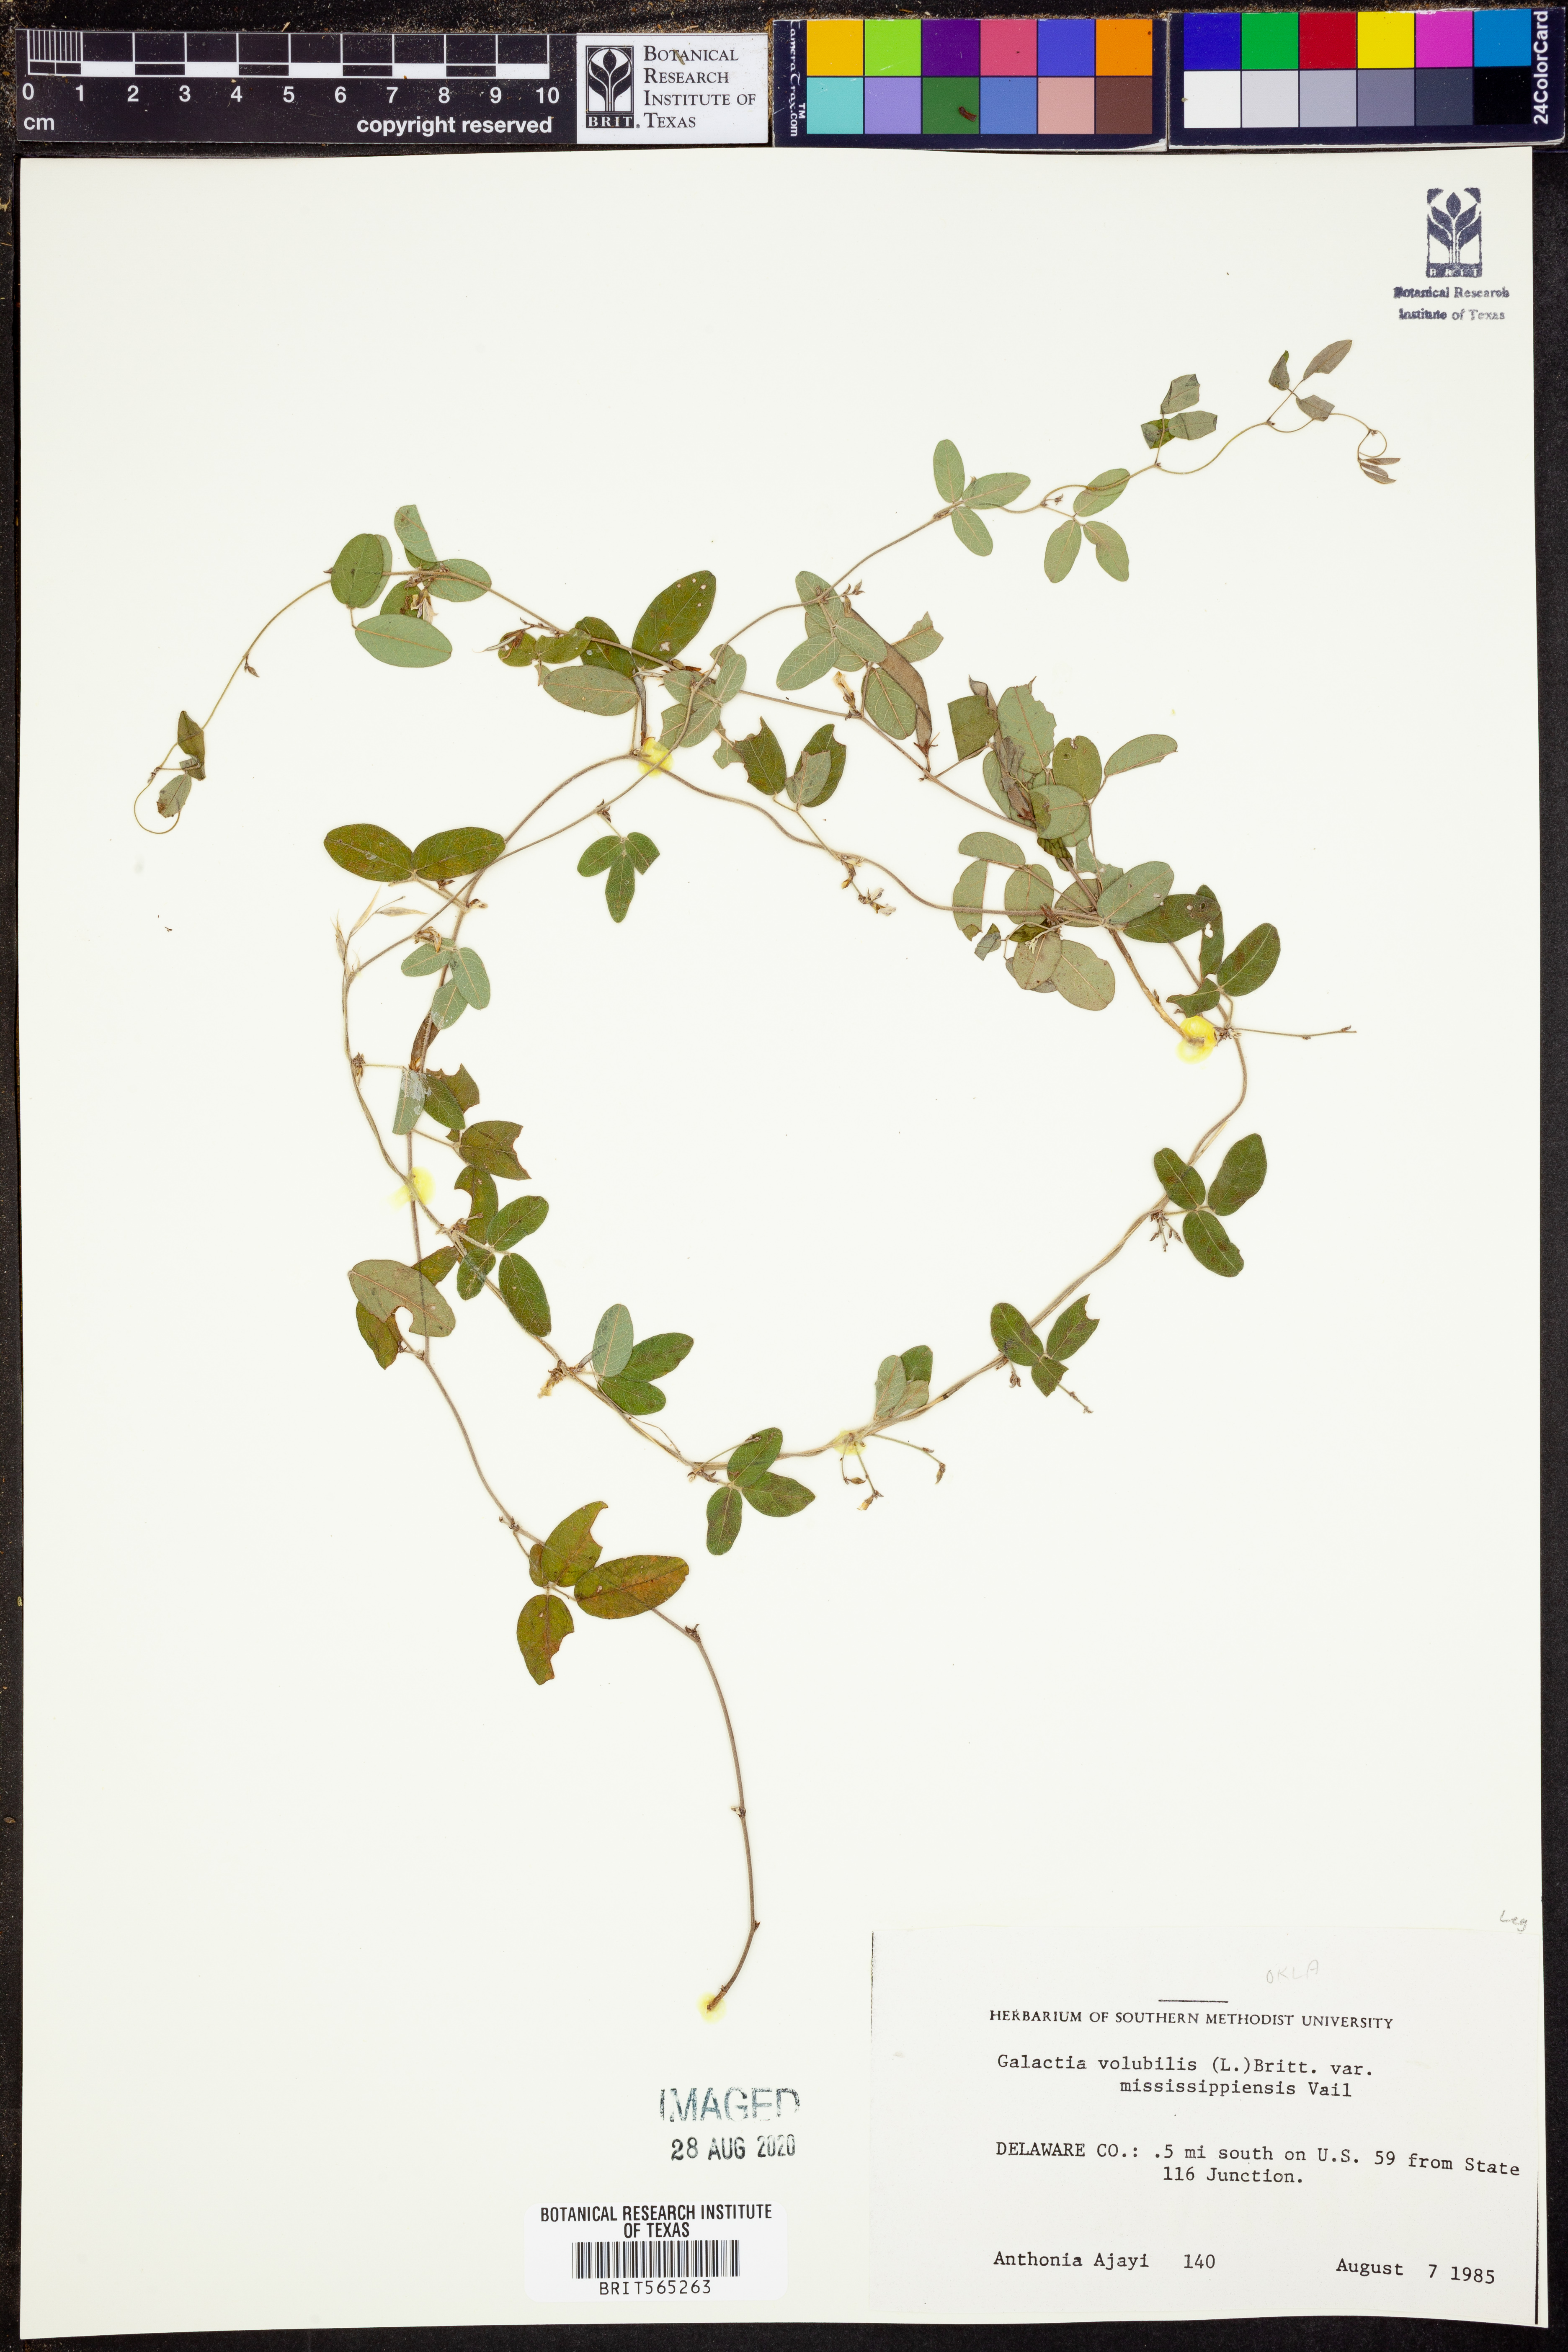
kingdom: Plantae
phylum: Tracheophyta
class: Magnoliopsida
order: Fabales
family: Fabaceae
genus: Galactia
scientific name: Galactia volubilis
